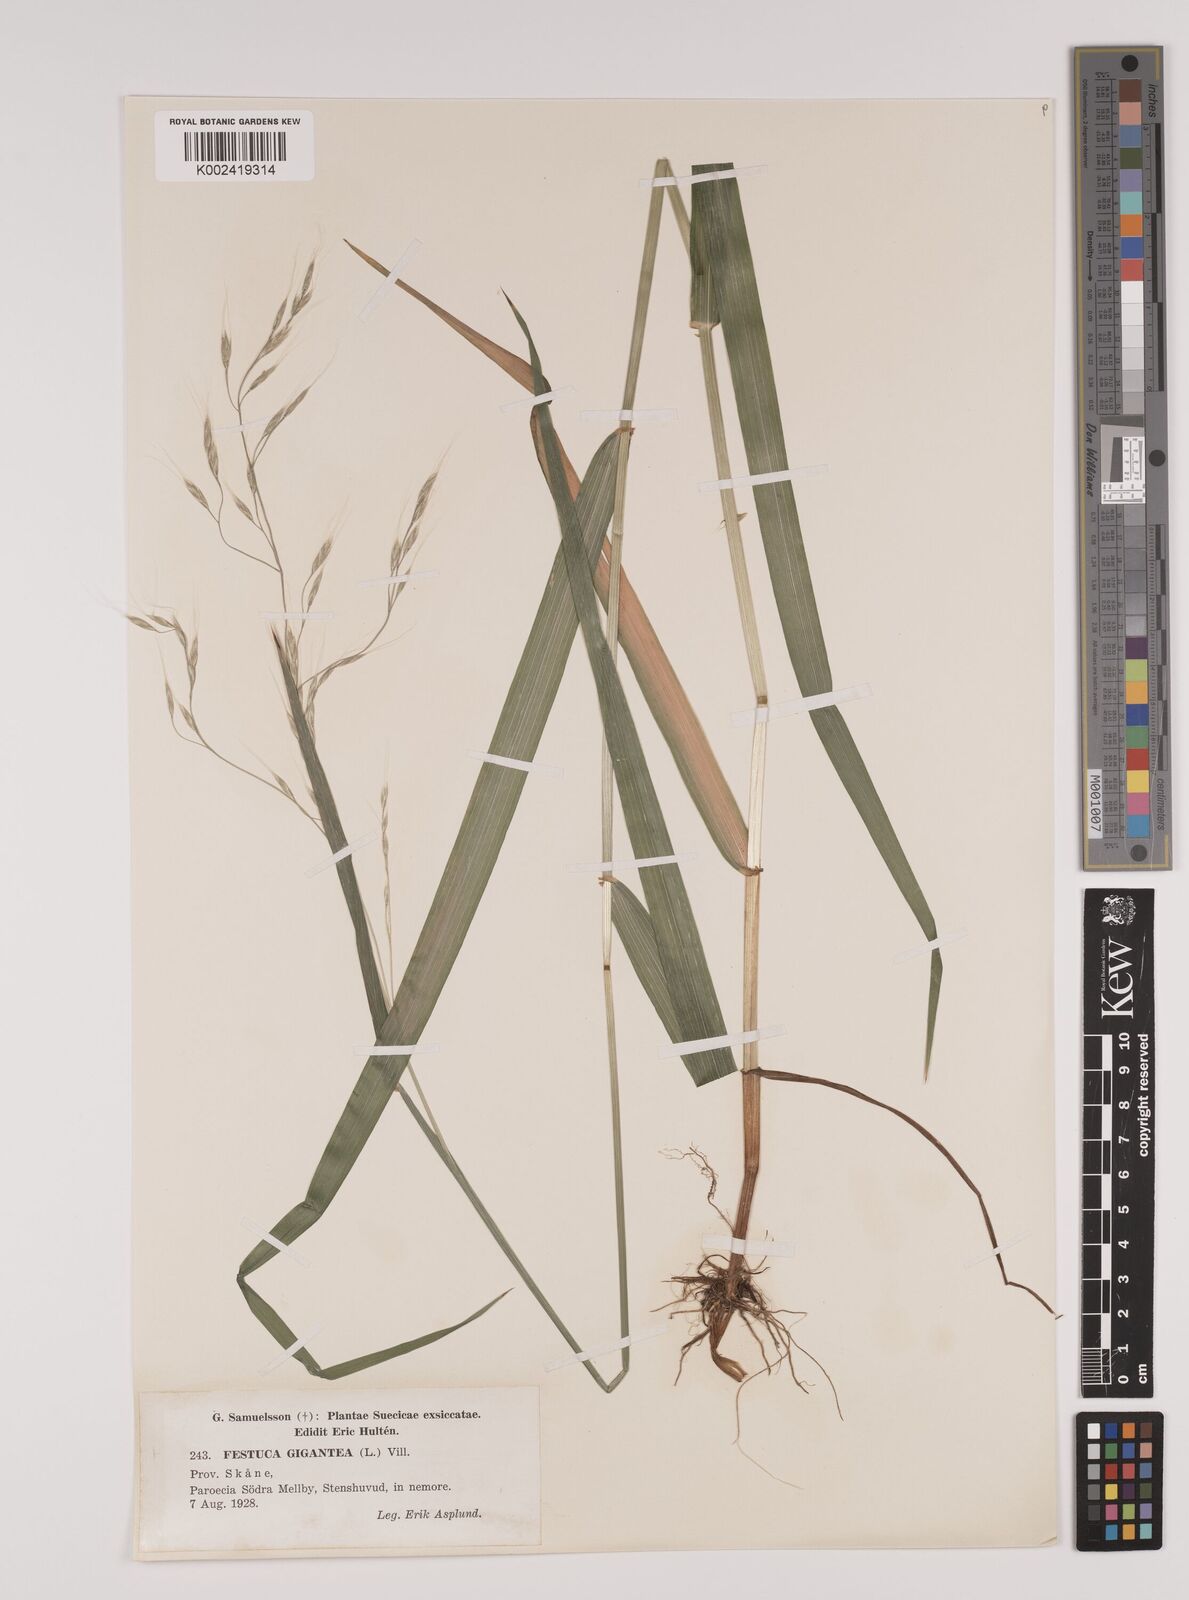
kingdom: Plantae
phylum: Tracheophyta
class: Liliopsida
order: Poales
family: Poaceae
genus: Lolium
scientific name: Lolium giganteum
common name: Giant fescue
